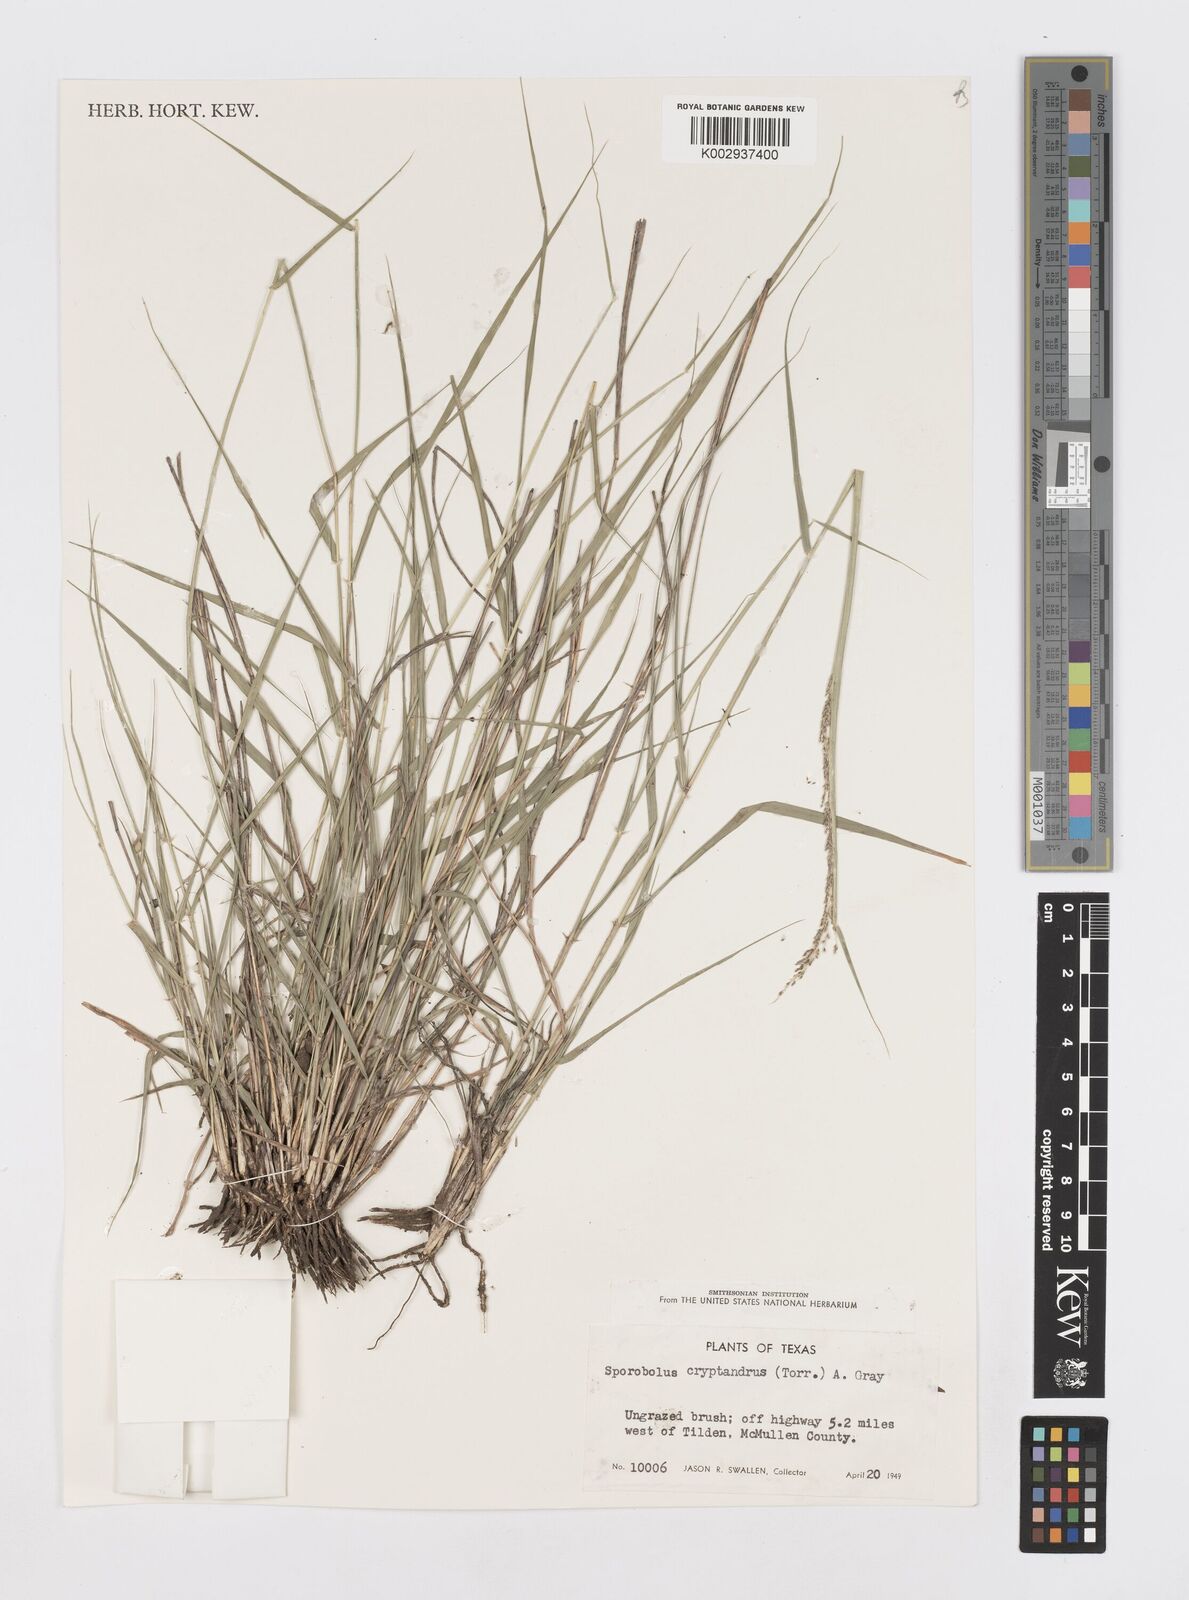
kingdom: Plantae
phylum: Tracheophyta
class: Liliopsida
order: Poales
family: Poaceae
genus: Sporobolus
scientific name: Sporobolus cryptandrus
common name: Sand dropseed
